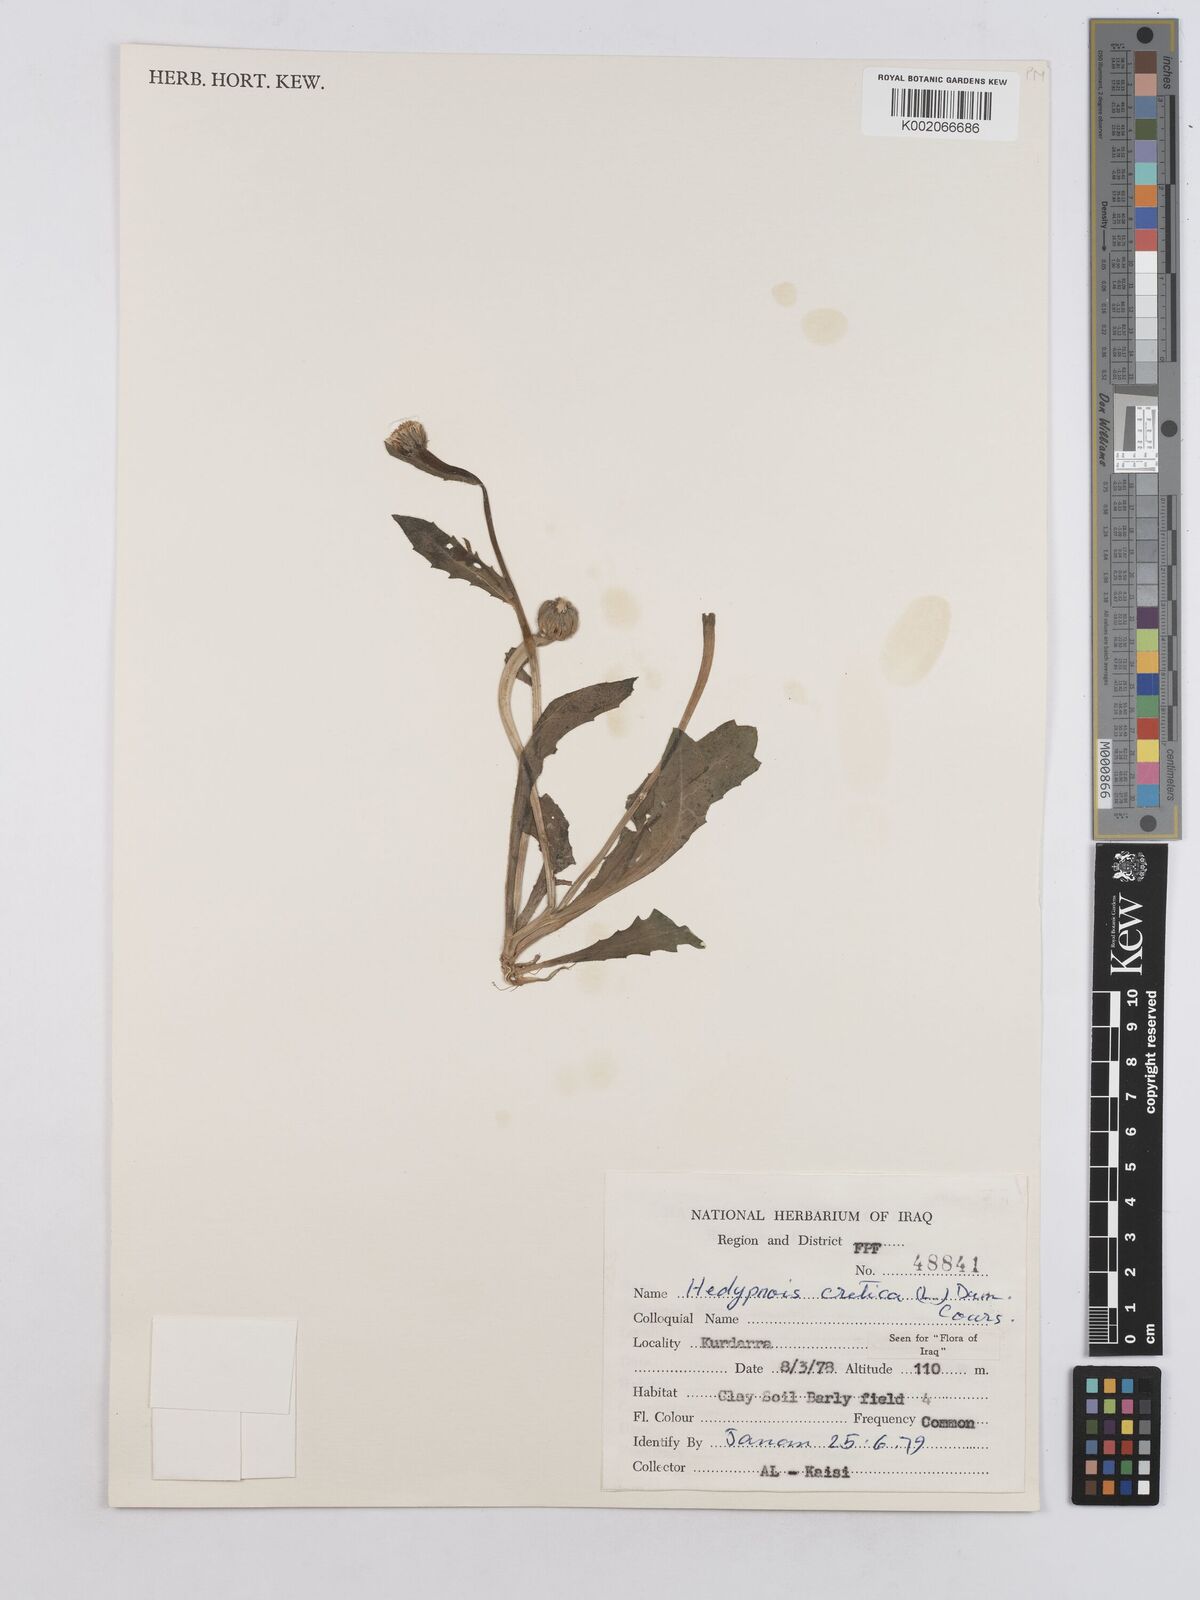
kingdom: Plantae
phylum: Tracheophyta
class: Magnoliopsida
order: Asterales
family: Asteraceae
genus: Hedypnois
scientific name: Hedypnois cretica
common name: Scaly hawkbit
